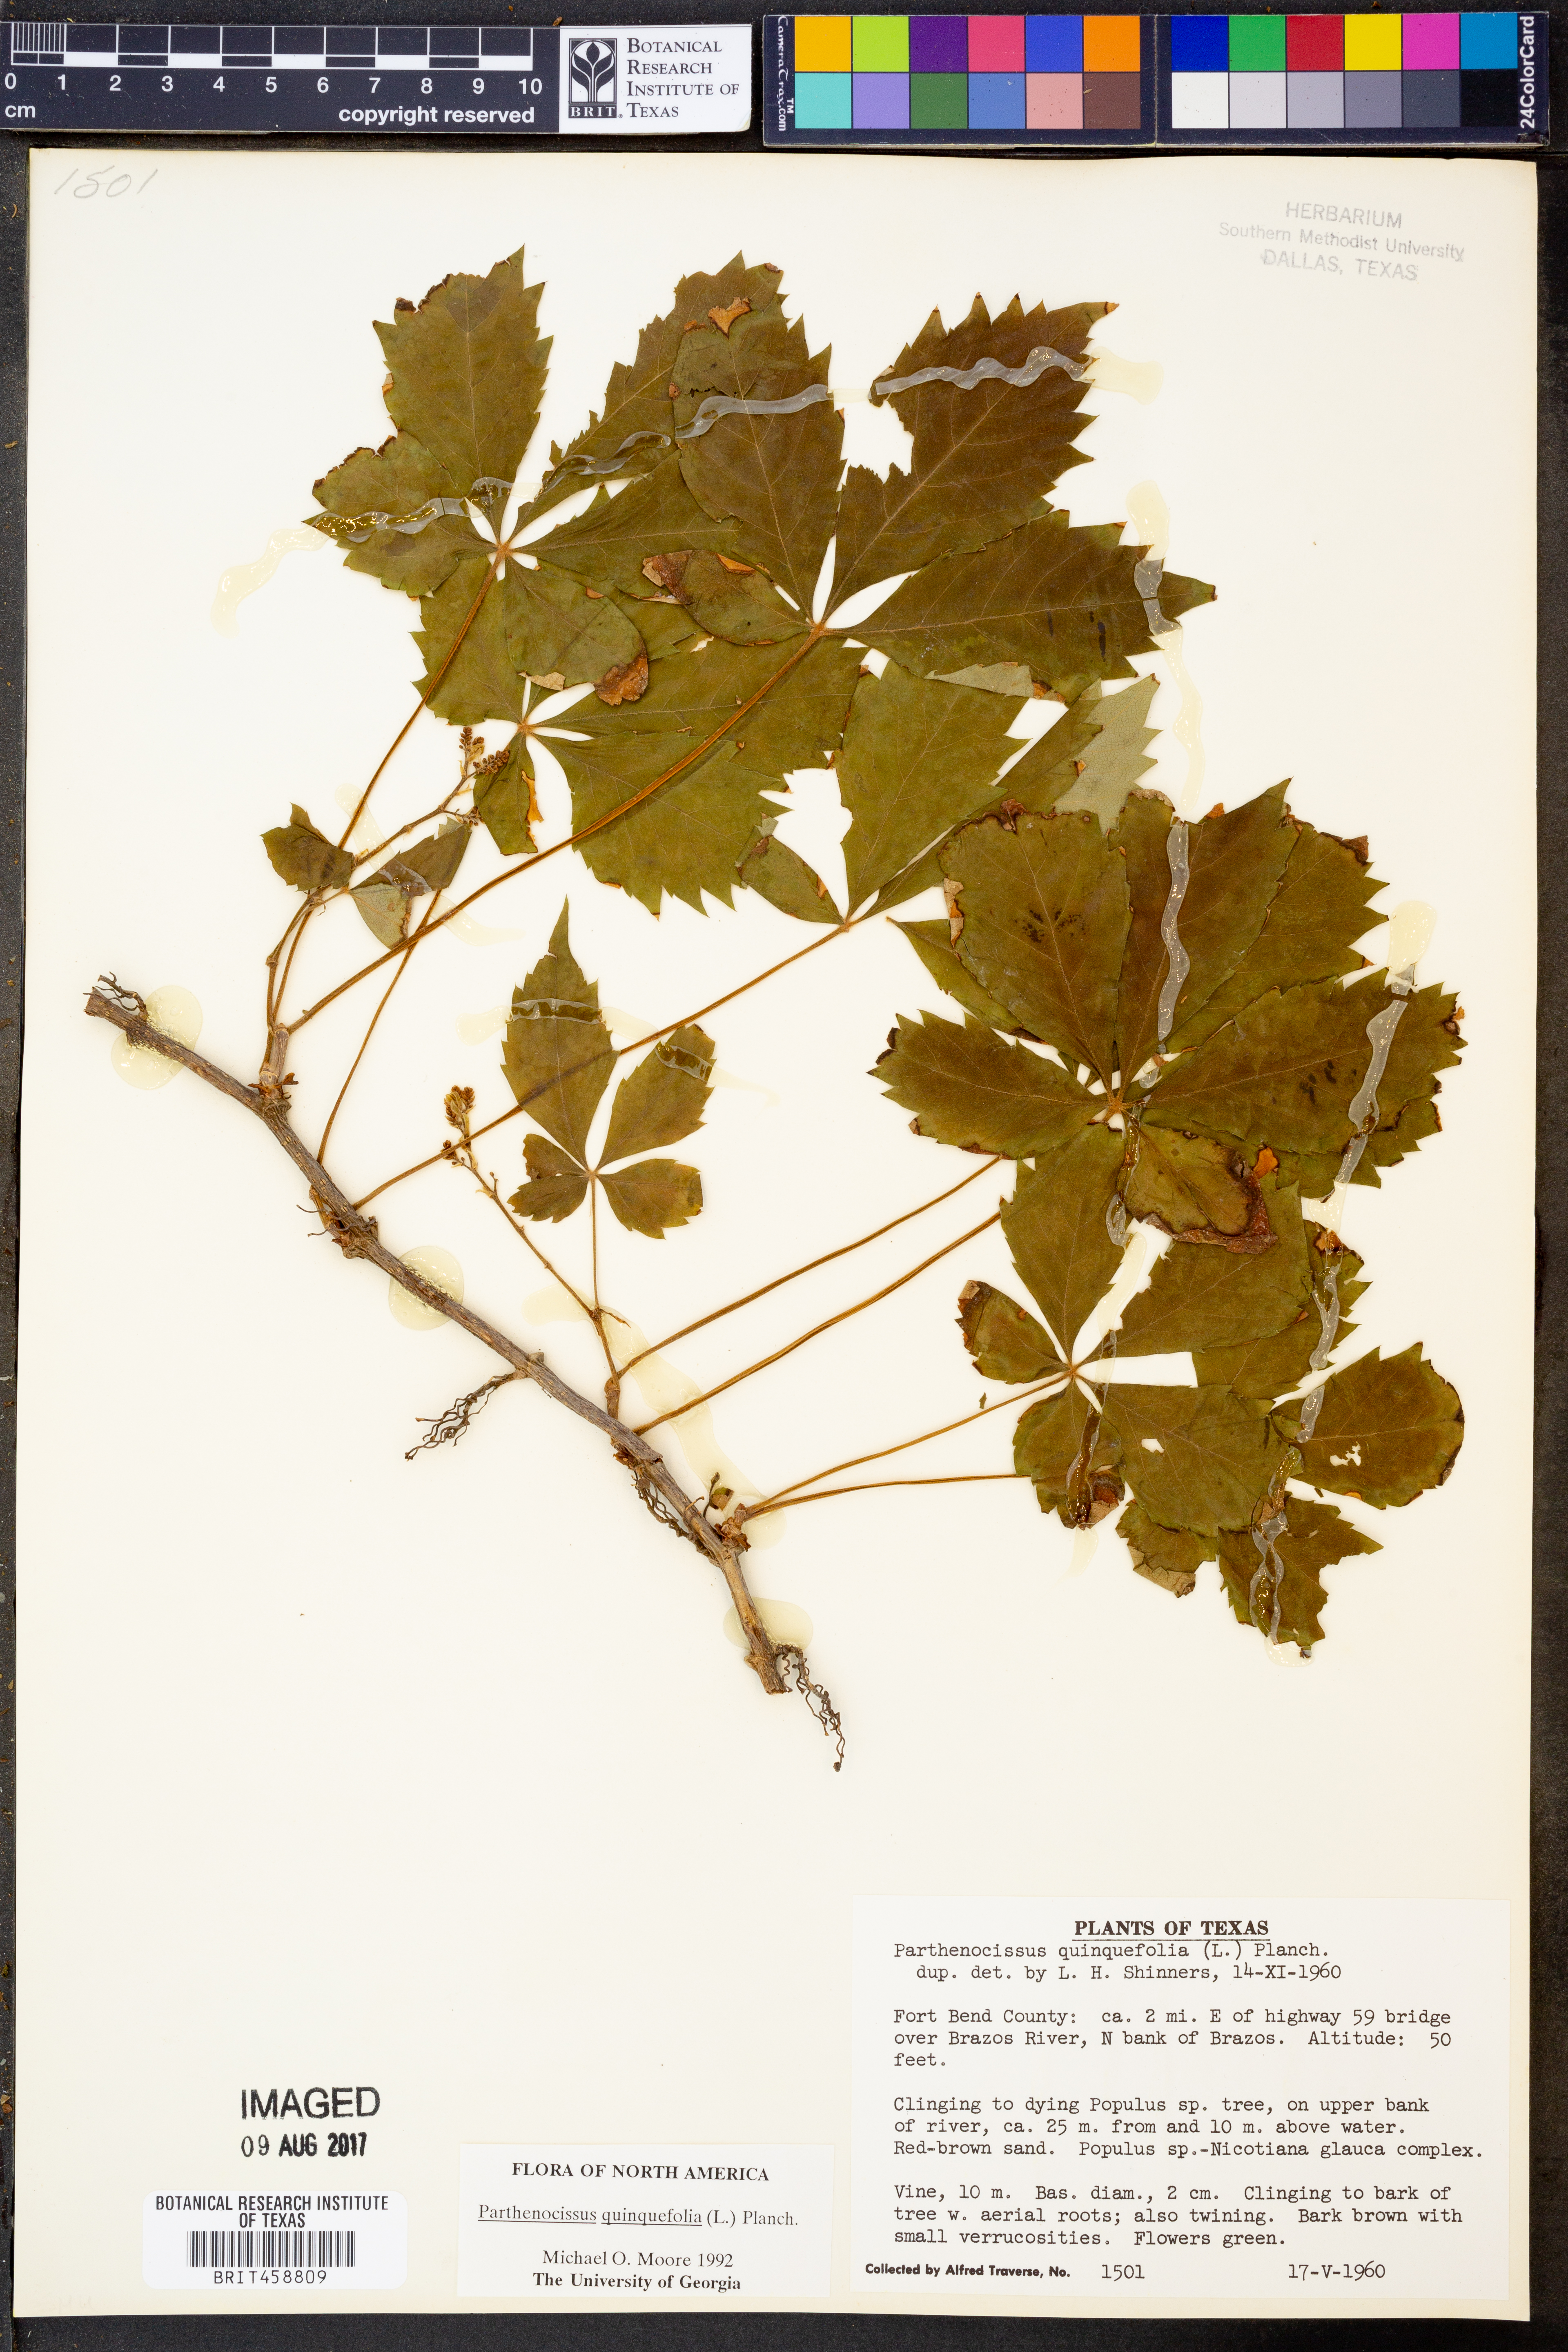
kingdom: Plantae
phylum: Tracheophyta
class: Magnoliopsida
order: Vitales
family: Vitaceae
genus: Parthenocissus
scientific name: Parthenocissus quinquefolia
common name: Virginia-creeper
